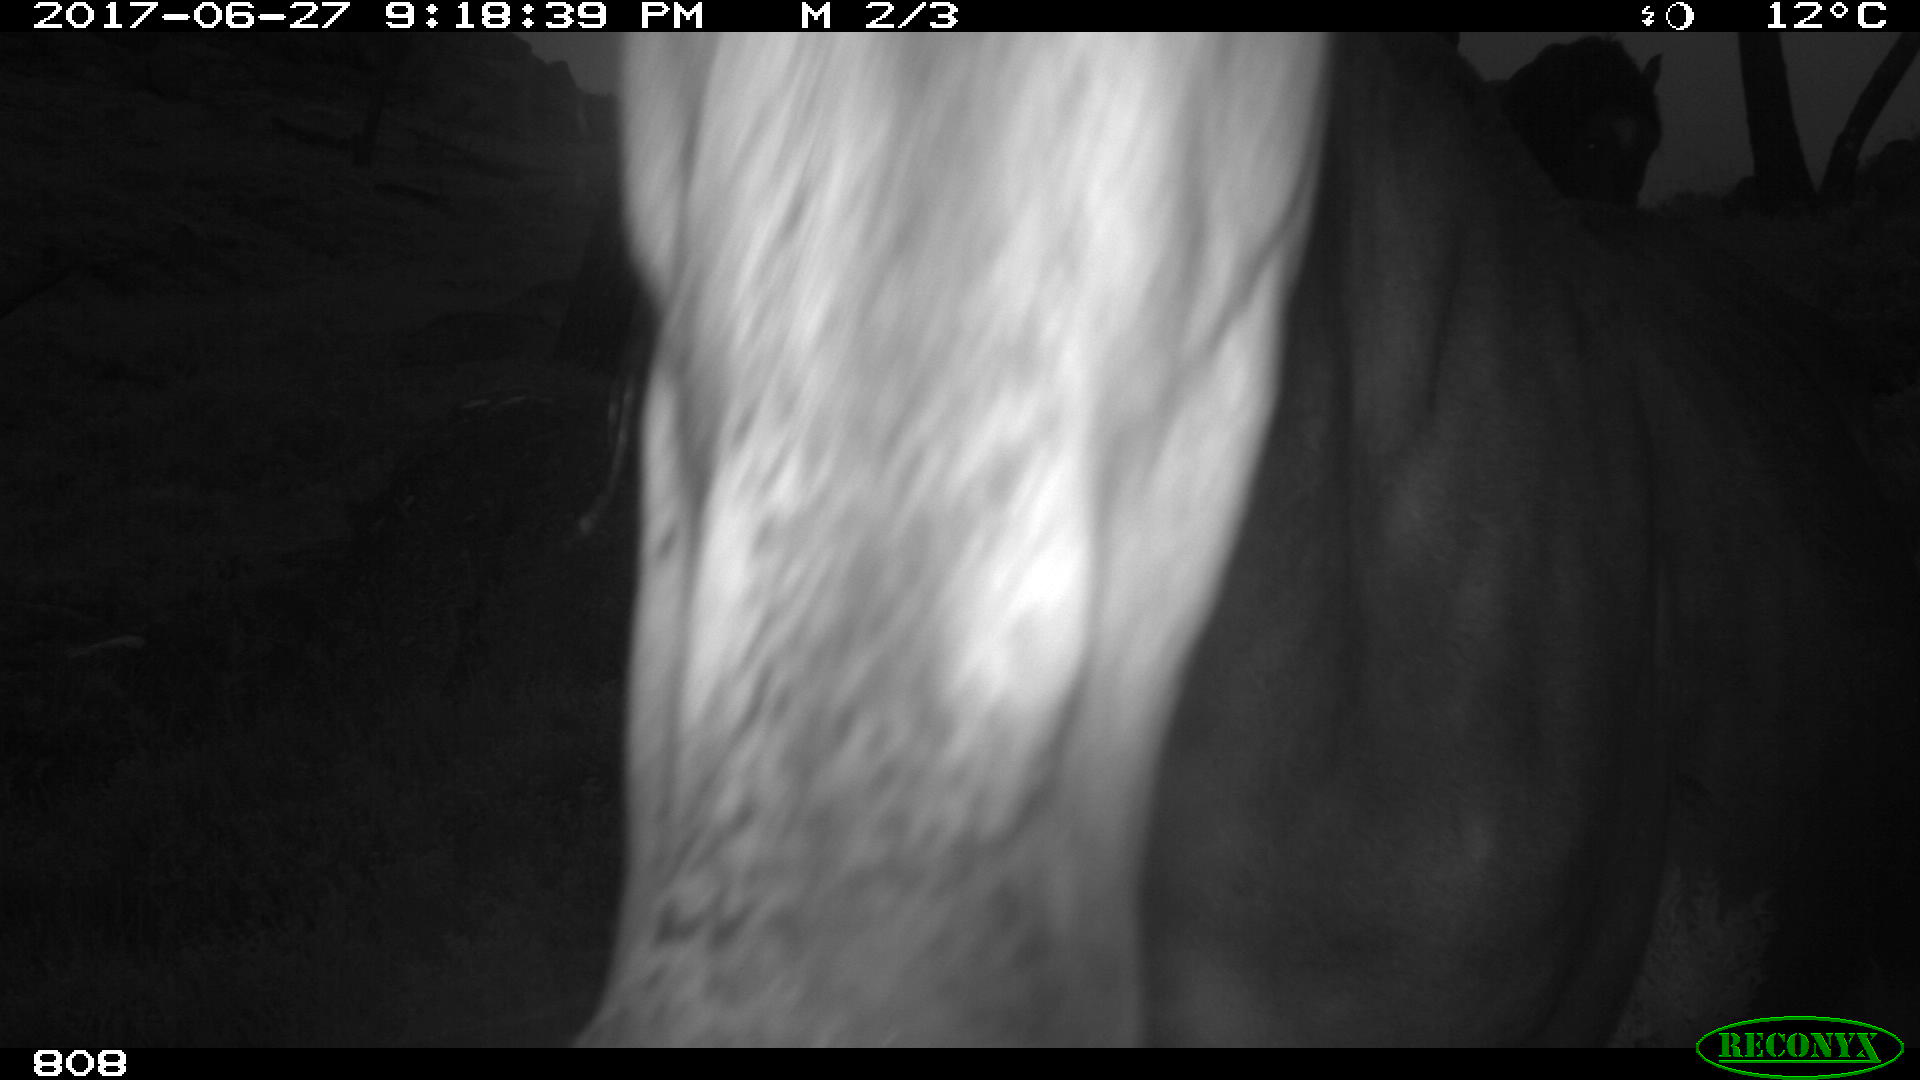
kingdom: Animalia
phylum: Chordata
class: Mammalia
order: Perissodactyla
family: Equidae
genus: Equus
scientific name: Equus caballus
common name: Horse
